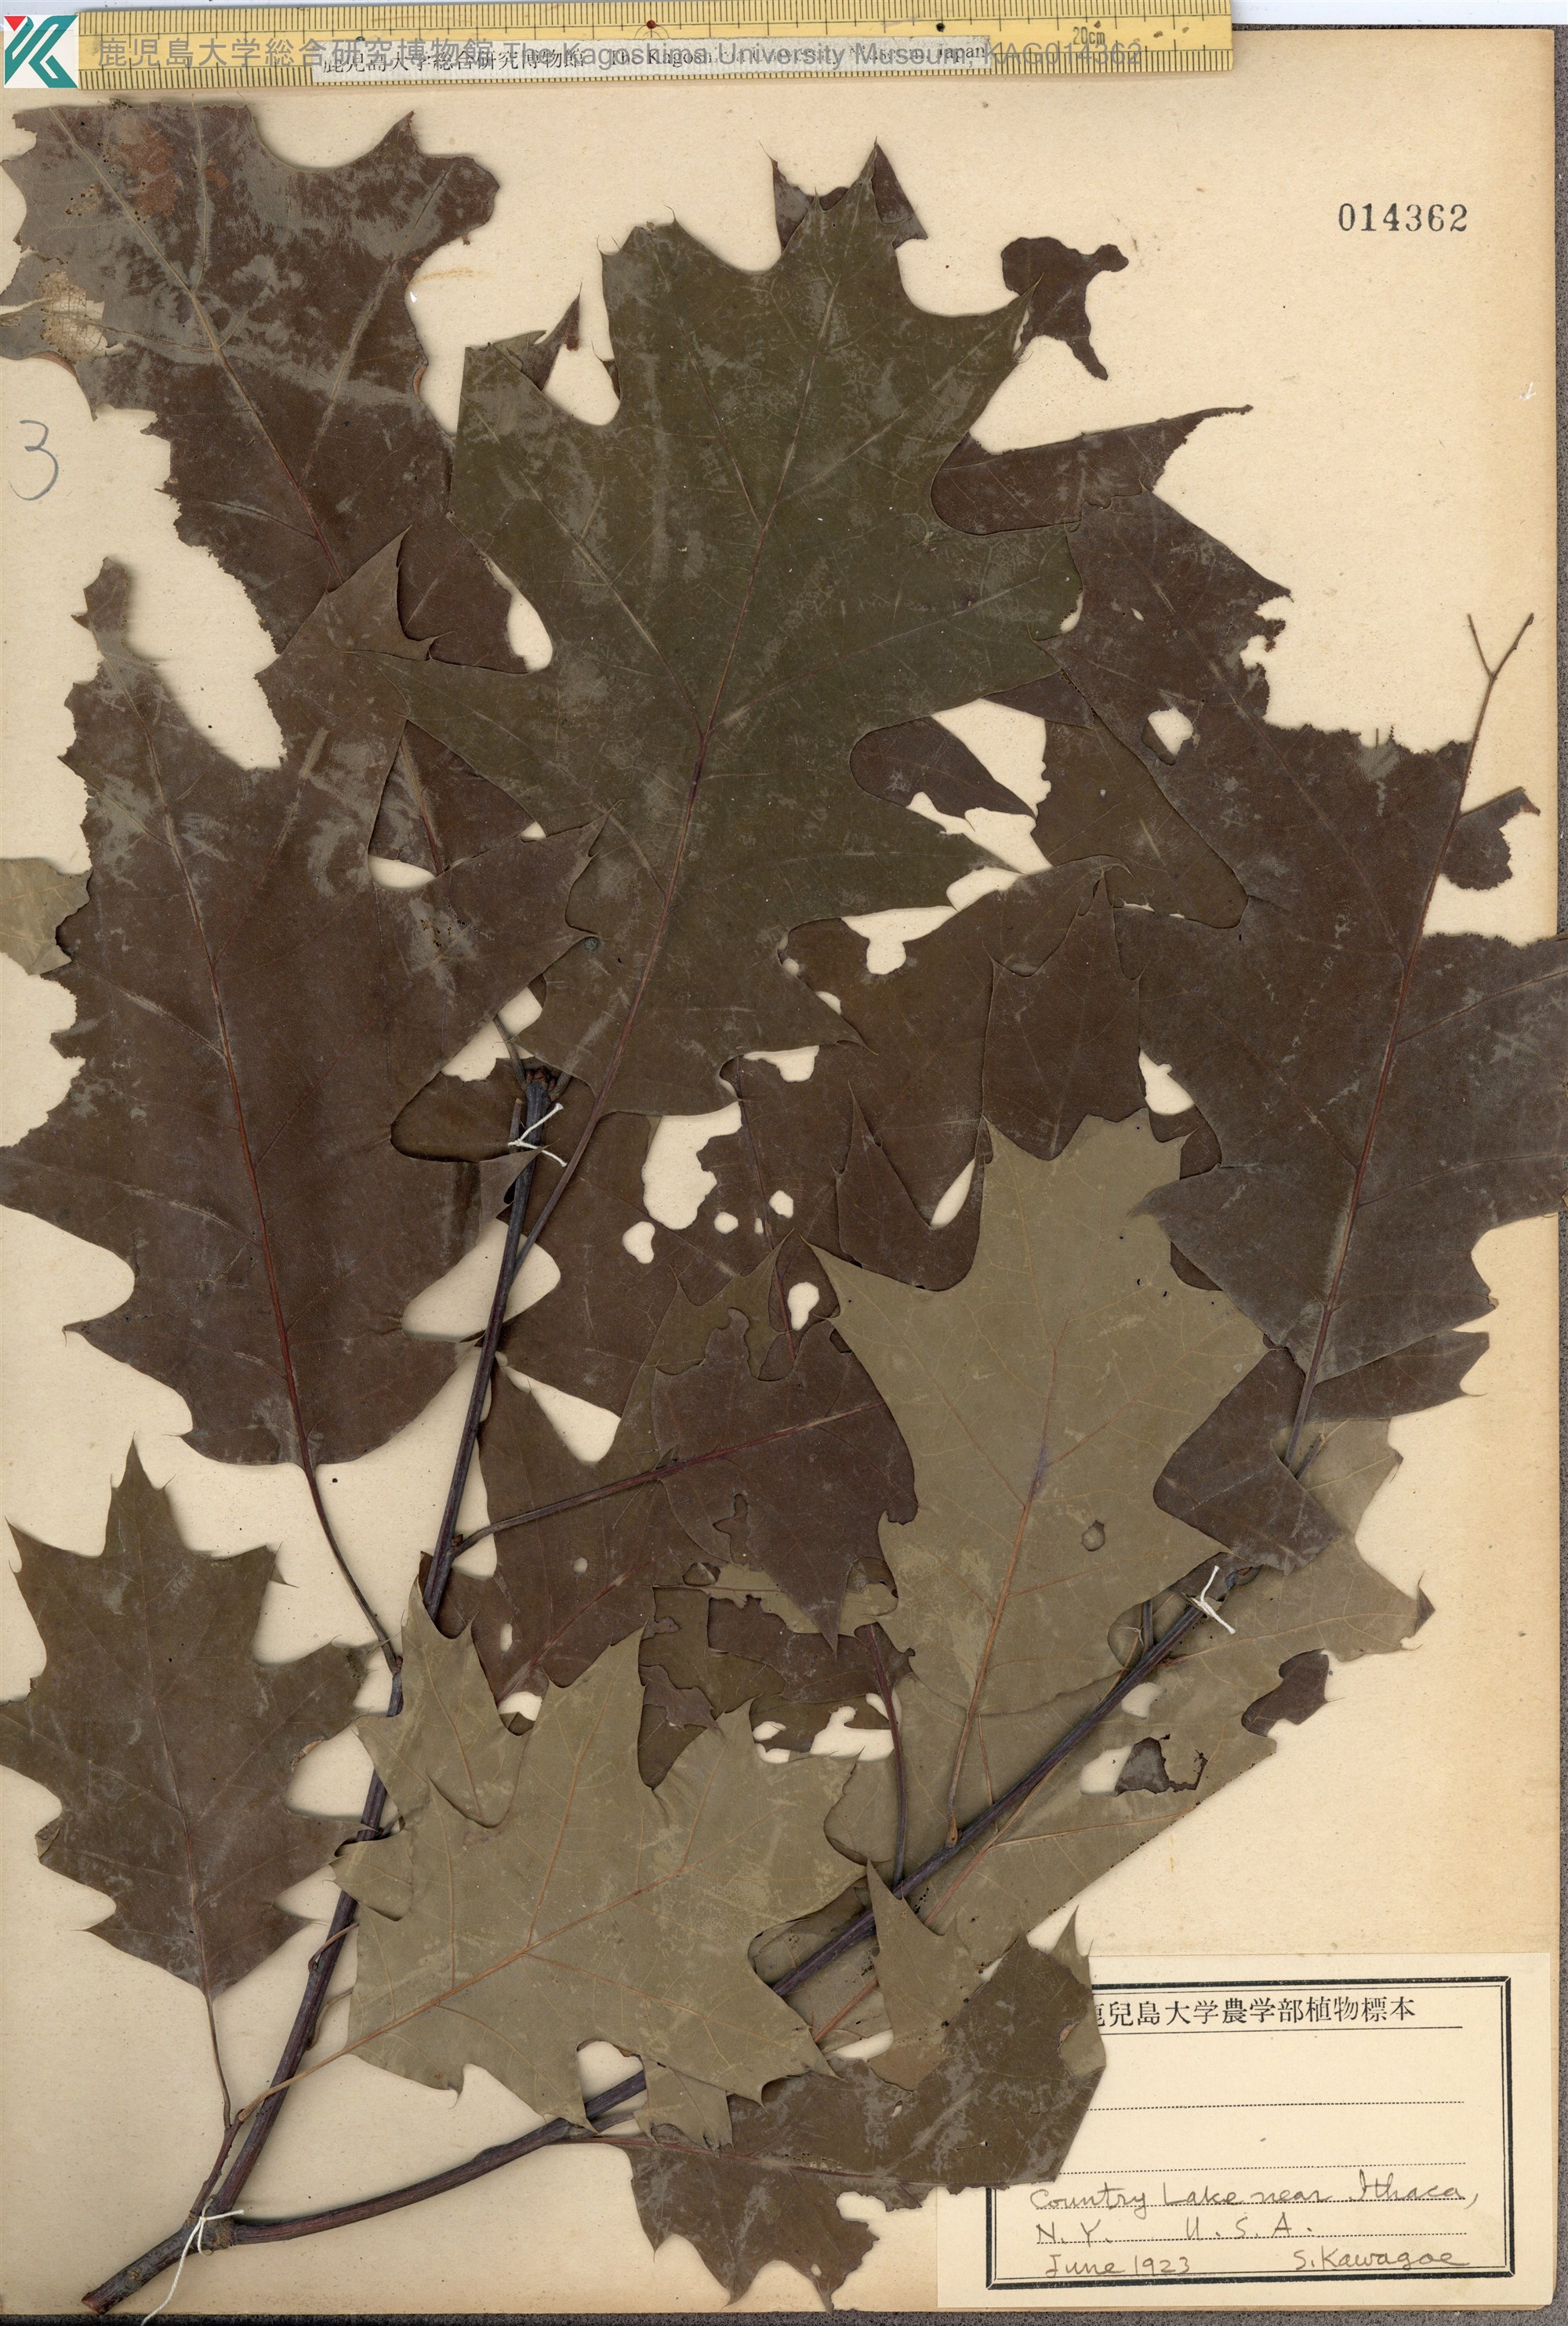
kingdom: Plantae
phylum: Tracheophyta
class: Magnoliopsida
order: Fagales
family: Fagaceae
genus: Quercus
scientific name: Quercus shumardii
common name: Shumard oak
